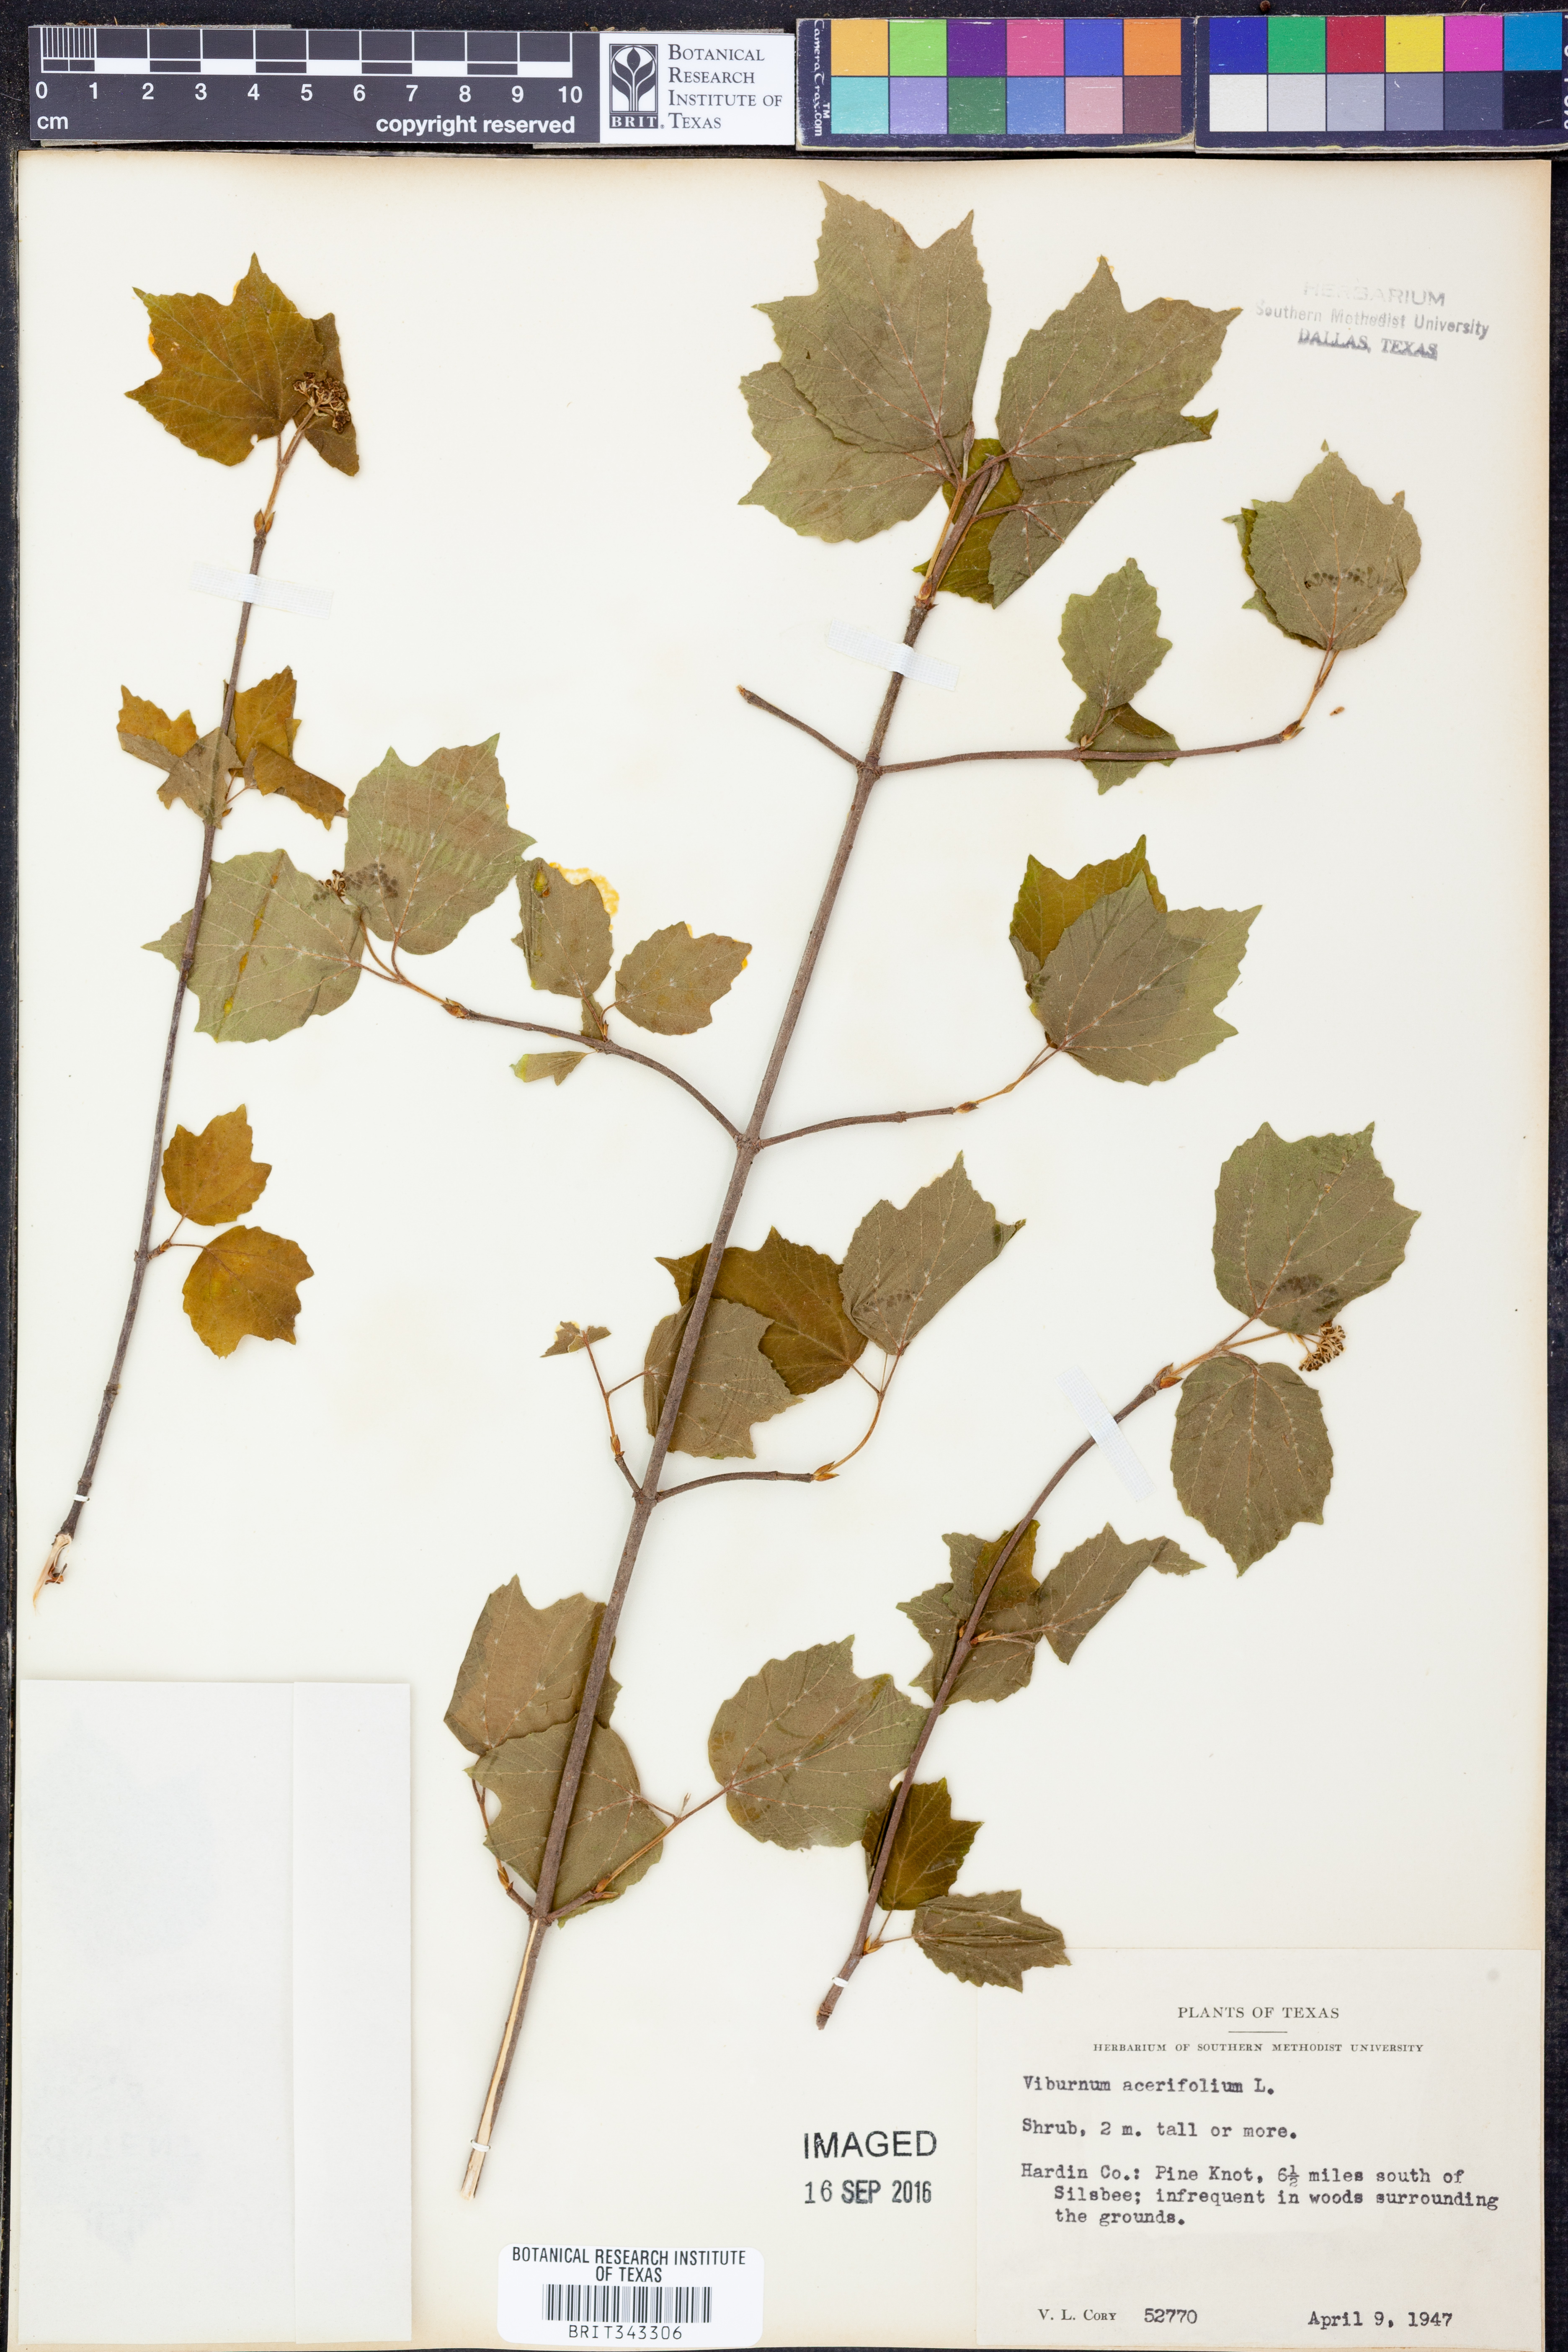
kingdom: Plantae
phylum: Tracheophyta
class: Magnoliopsida
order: Dipsacales
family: Viburnaceae
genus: Viburnum
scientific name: Viburnum acerifolium
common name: Dockmackie
